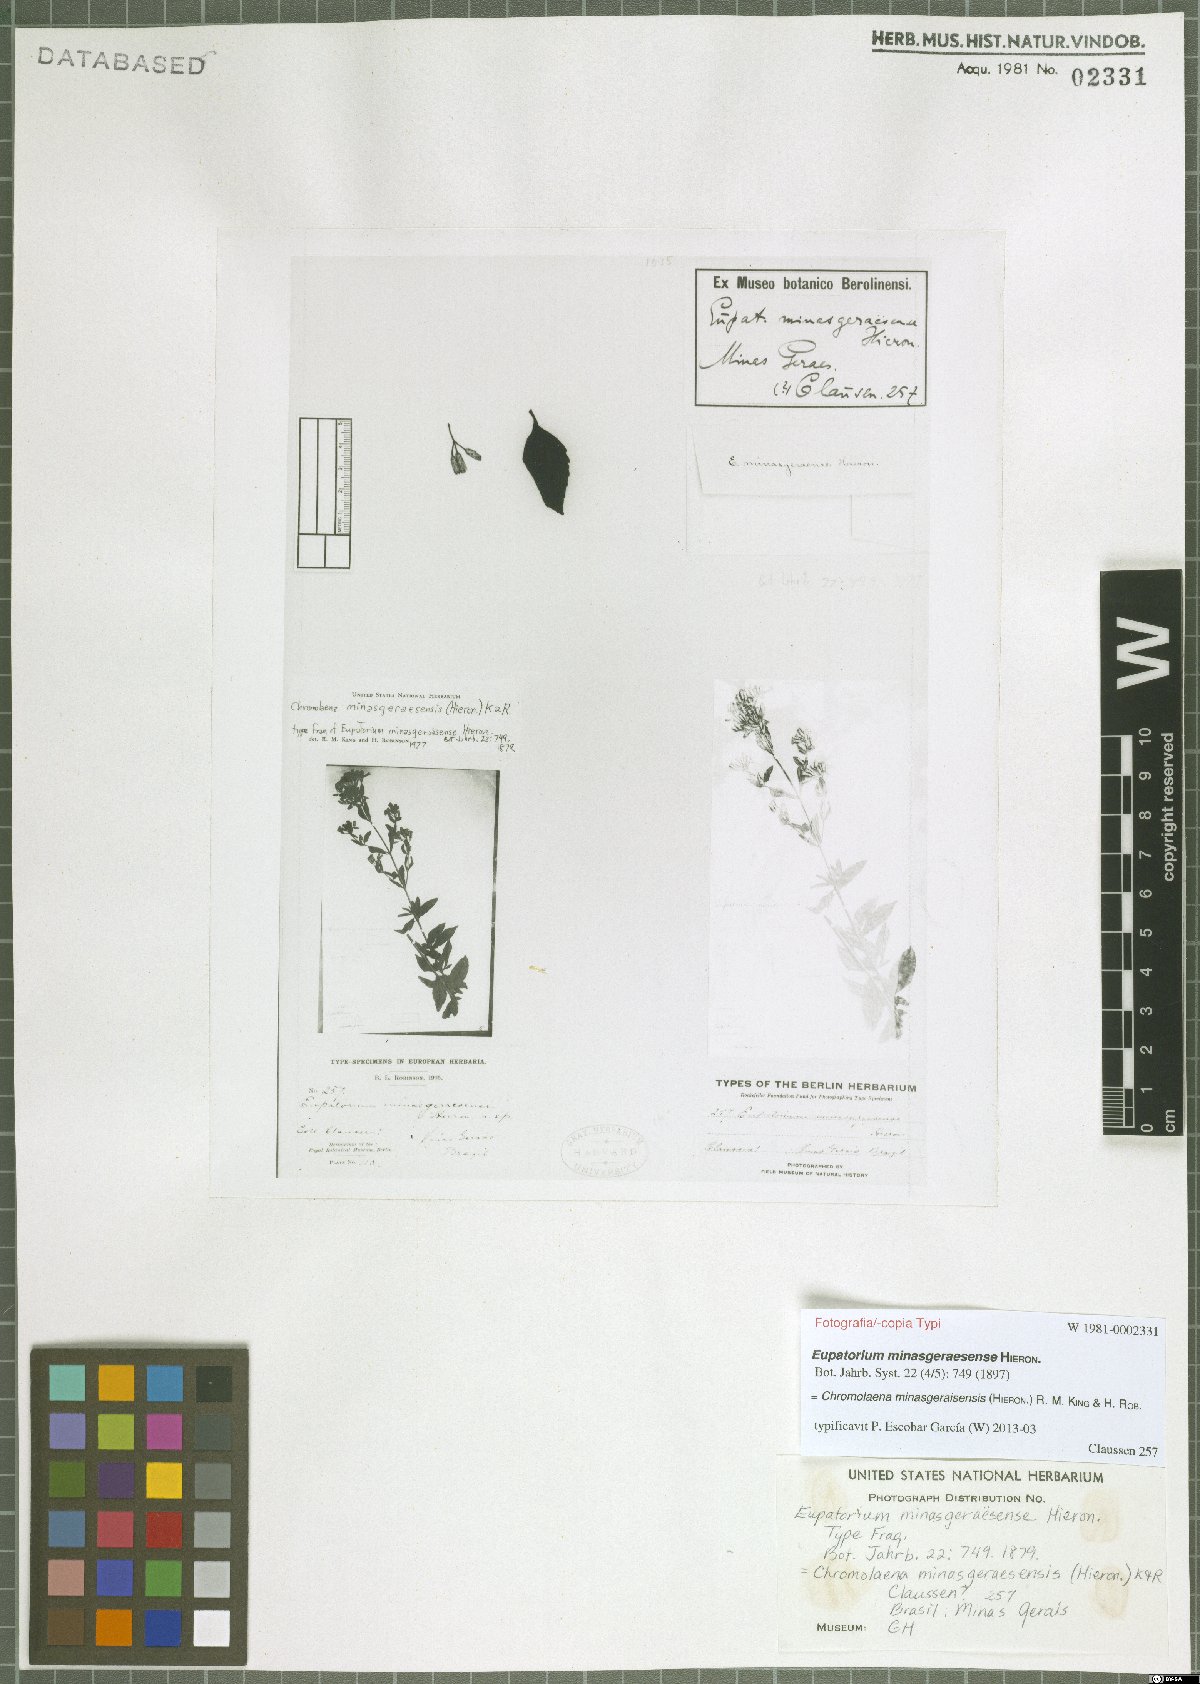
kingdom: Plantae
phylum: Tracheophyta
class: Magnoliopsida
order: Asterales
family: Asteraceae
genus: Chromolaena
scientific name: Chromolaena minasgeraesensis
